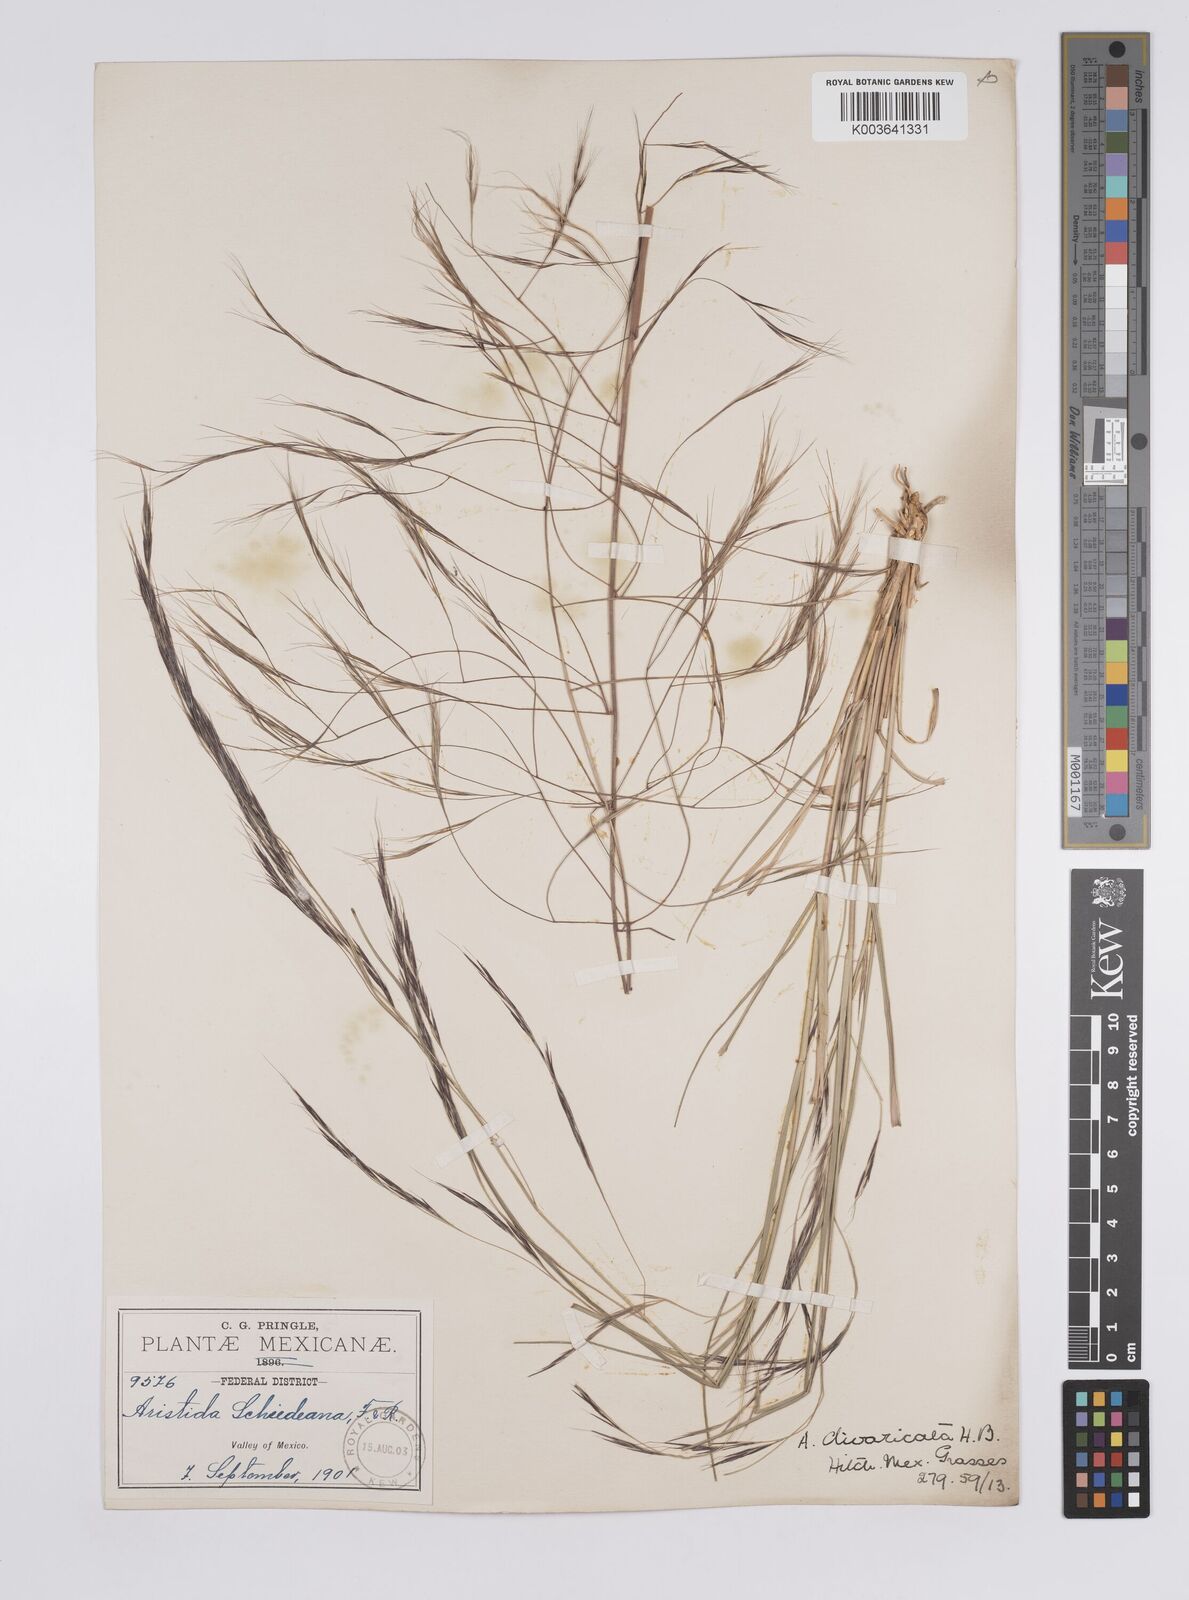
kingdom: Plantae
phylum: Tracheophyta
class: Liliopsida
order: Poales
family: Poaceae
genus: Aristida
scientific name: Aristida divaricata
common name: Poverty grass
